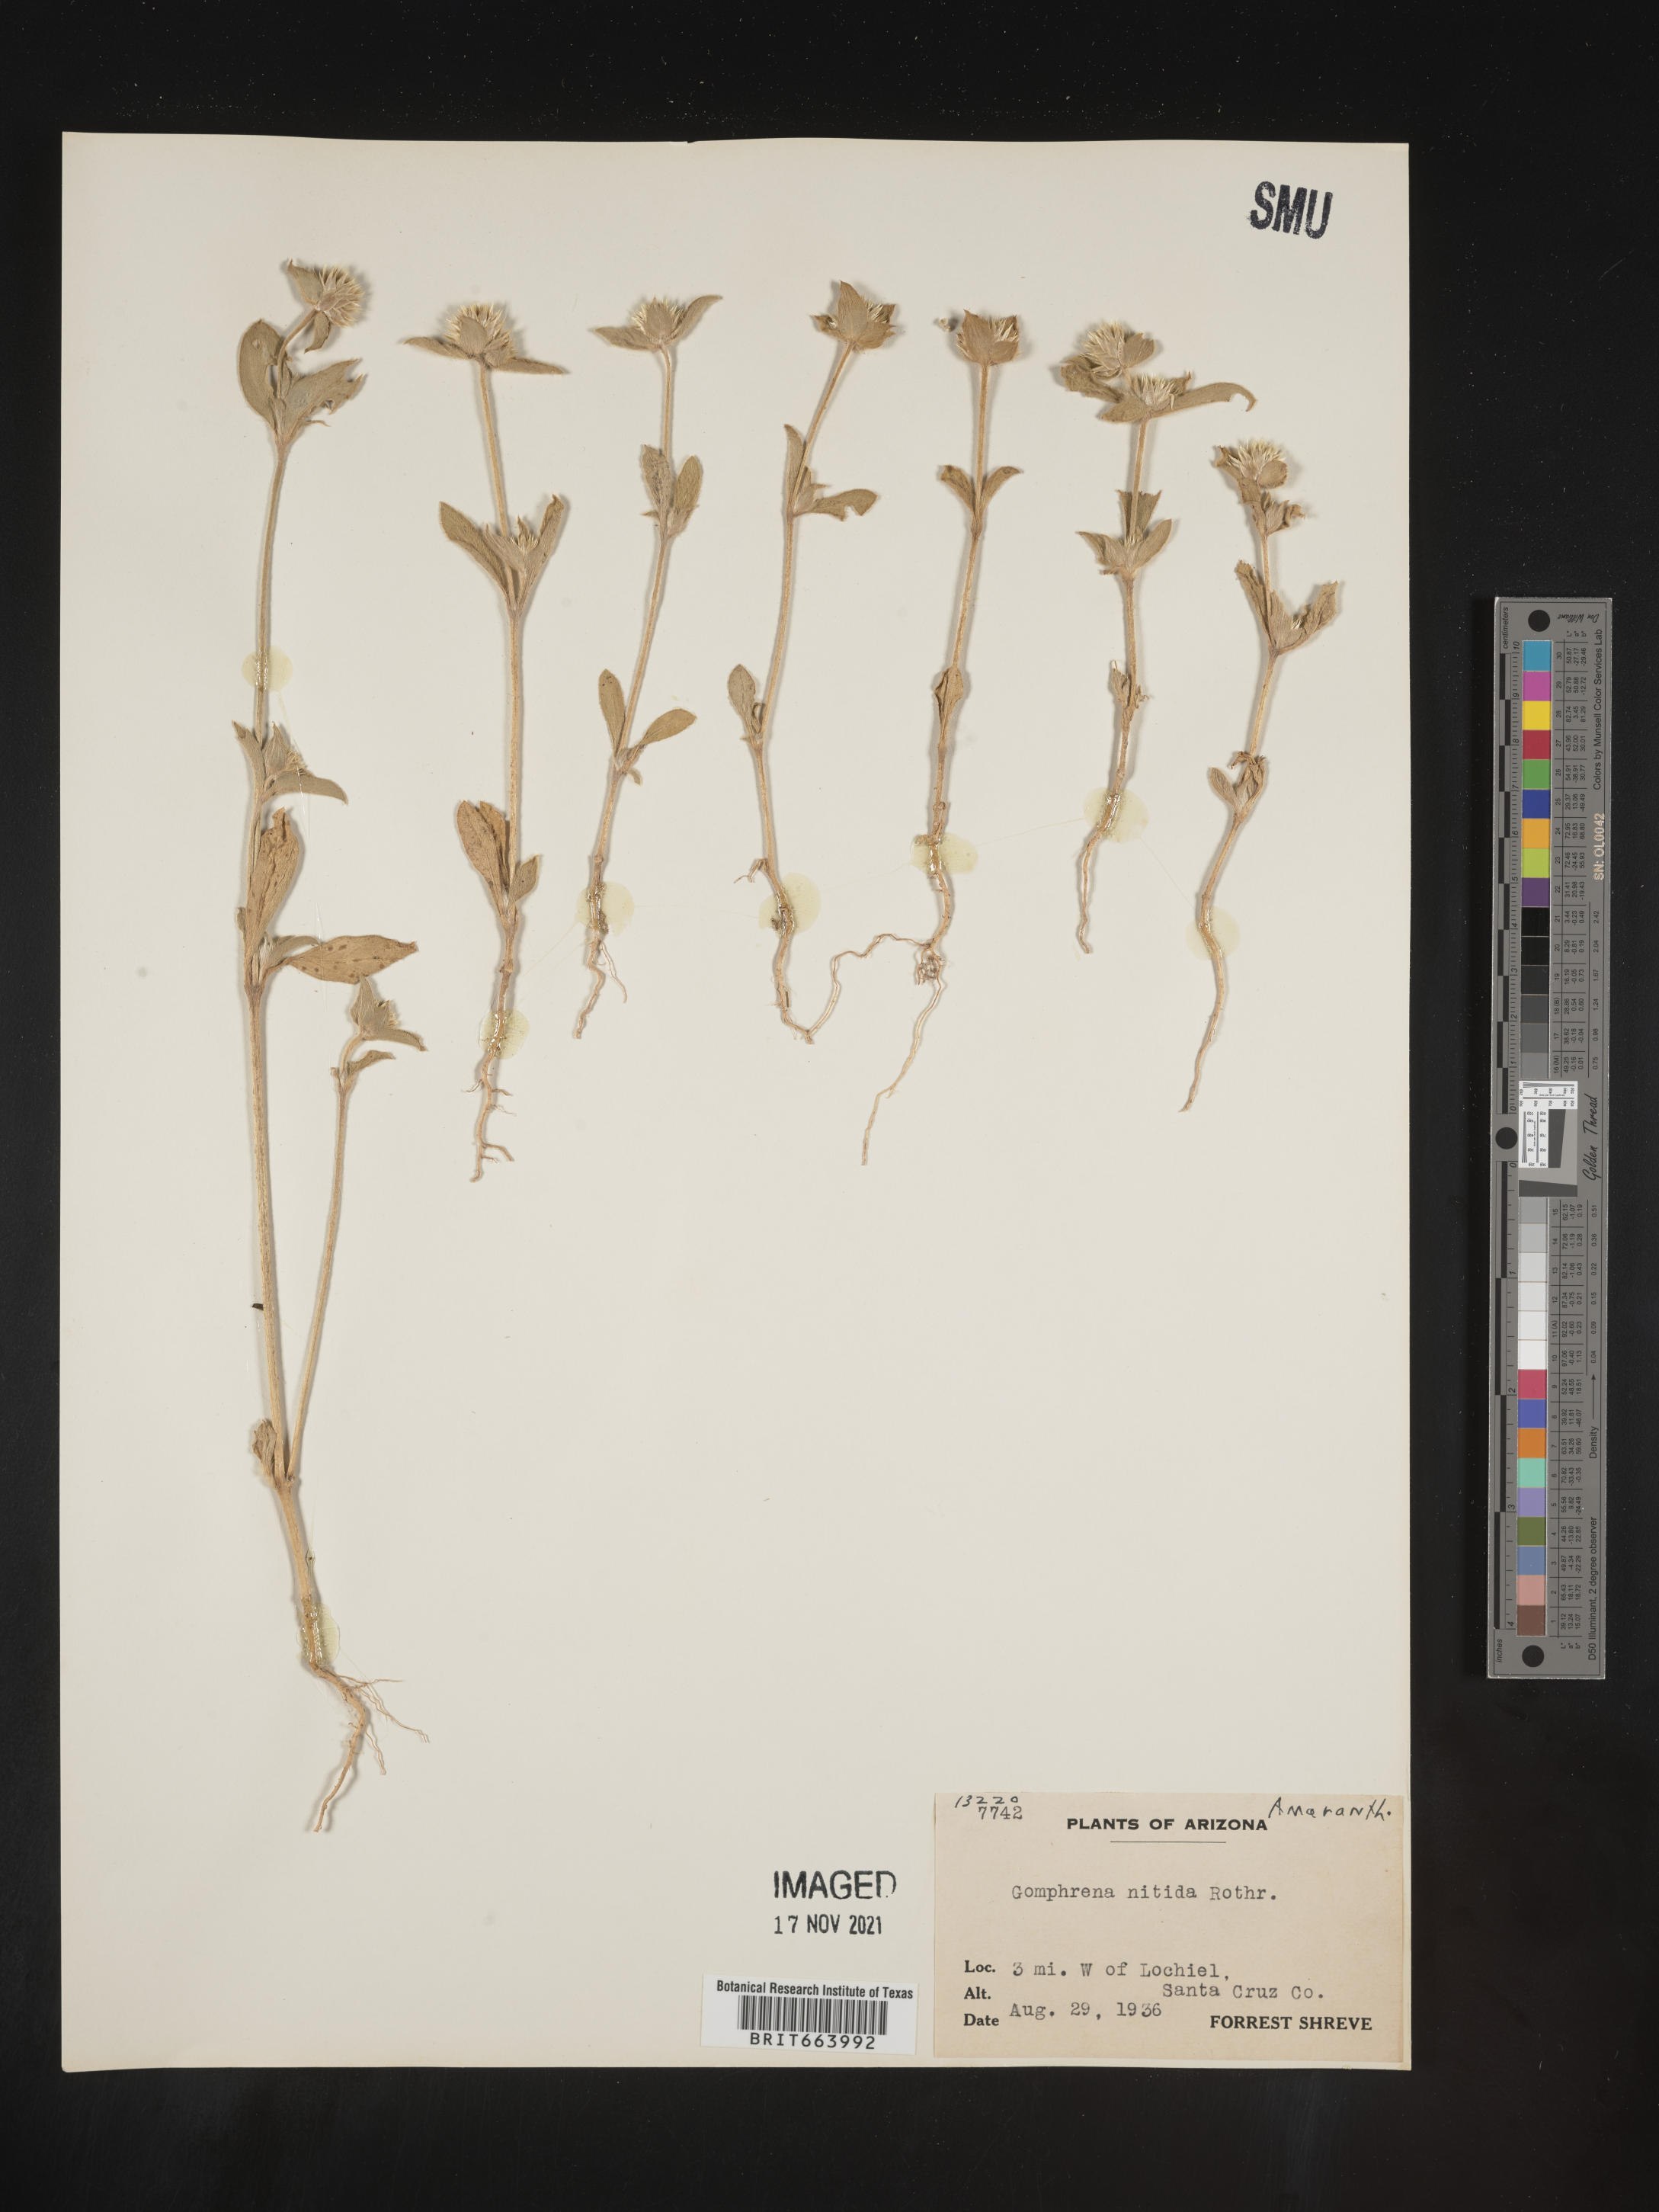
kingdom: Plantae
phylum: Tracheophyta
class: Magnoliopsida
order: Caryophyllales
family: Amaranthaceae
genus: Gomphrena
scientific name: Gomphrena
